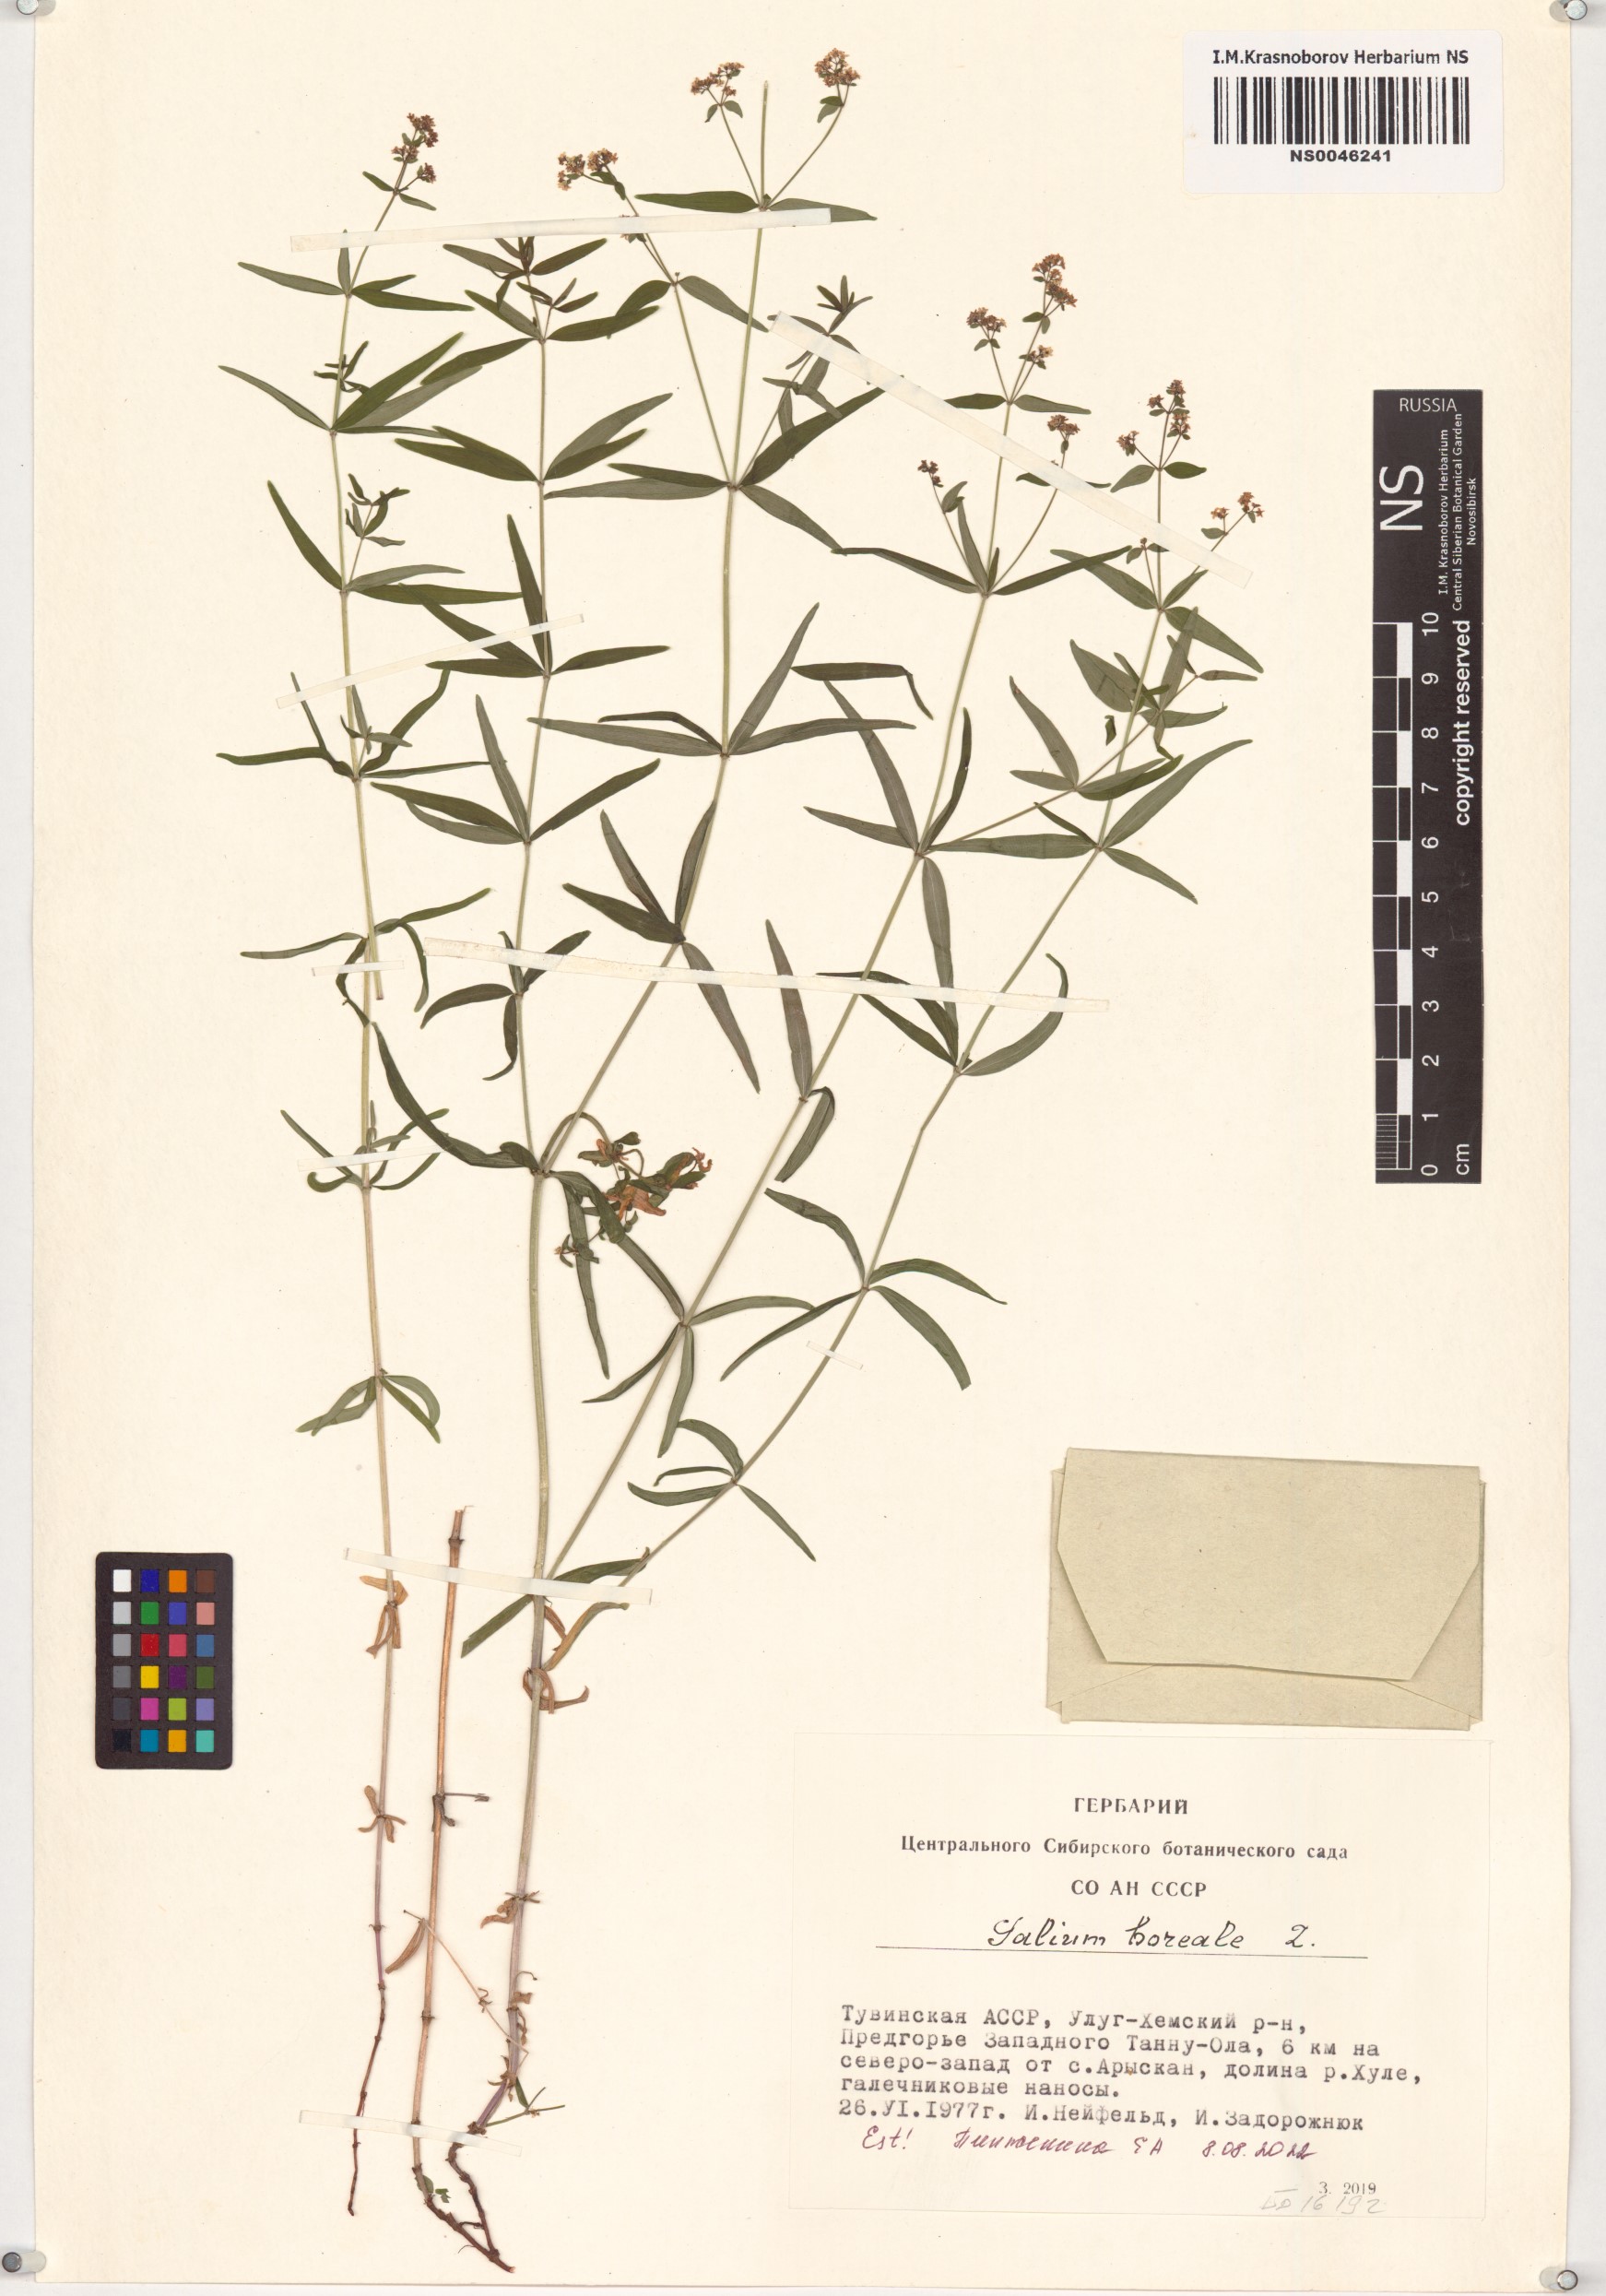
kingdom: Plantae
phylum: Tracheophyta
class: Magnoliopsida
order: Gentianales
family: Rubiaceae
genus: Galium
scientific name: Galium boreale
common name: Northern bedstraw
